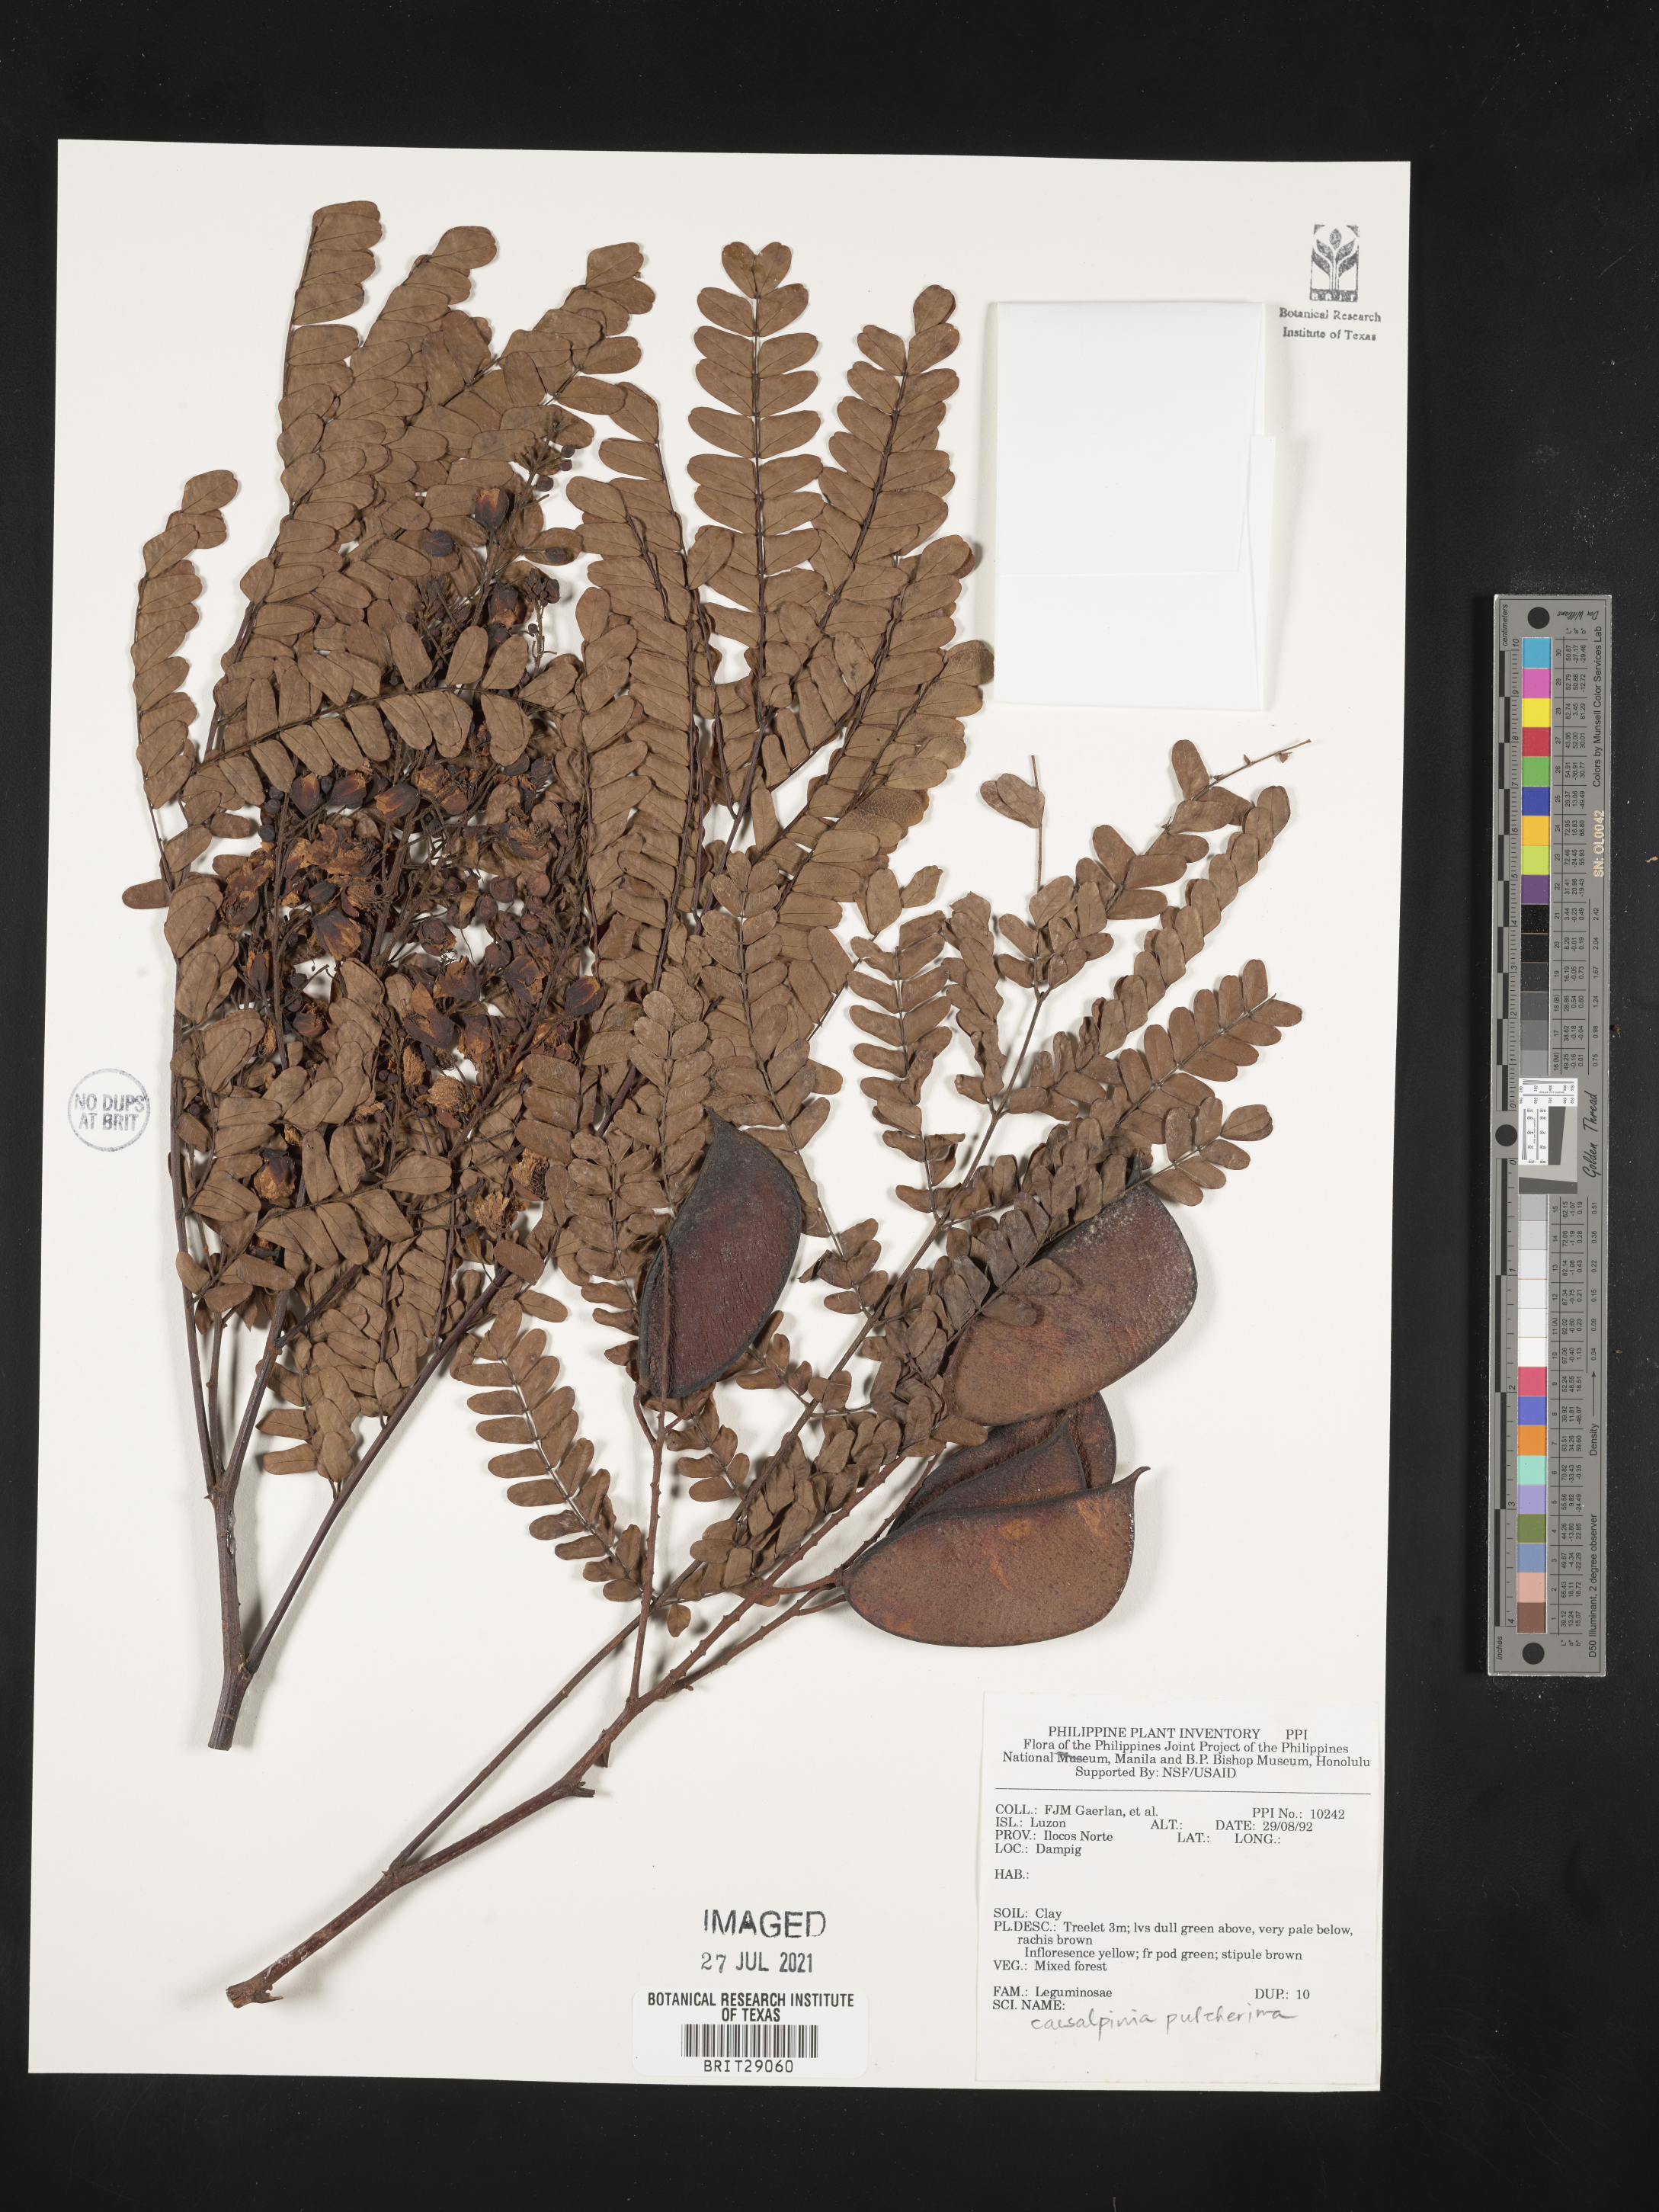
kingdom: Plantae
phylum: Tracheophyta
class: Magnoliopsida
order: Fabales
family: Fabaceae
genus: Caesalpinia
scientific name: Caesalpinia pulcherrima
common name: Pride-of-barbados
